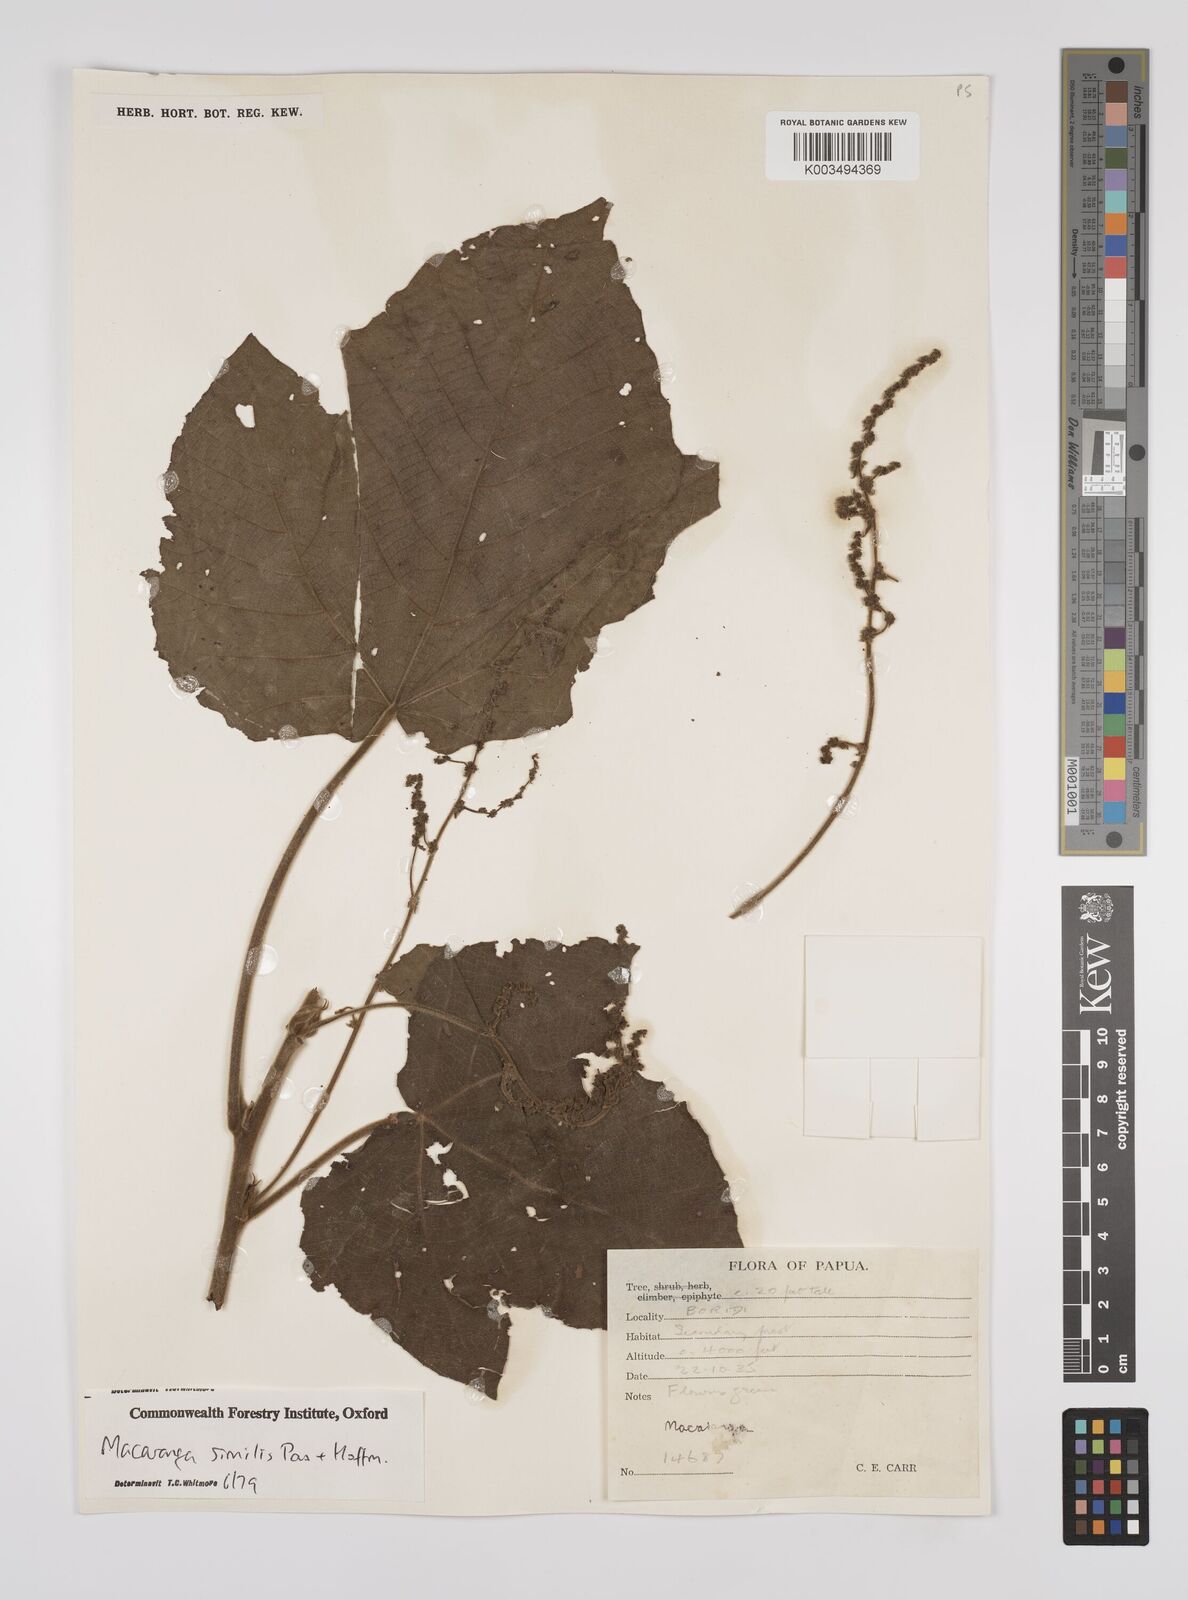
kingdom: Plantae
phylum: Tracheophyta
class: Magnoliopsida
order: Malpighiales
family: Euphorbiaceae
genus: Macaranga
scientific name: Macaranga similis
